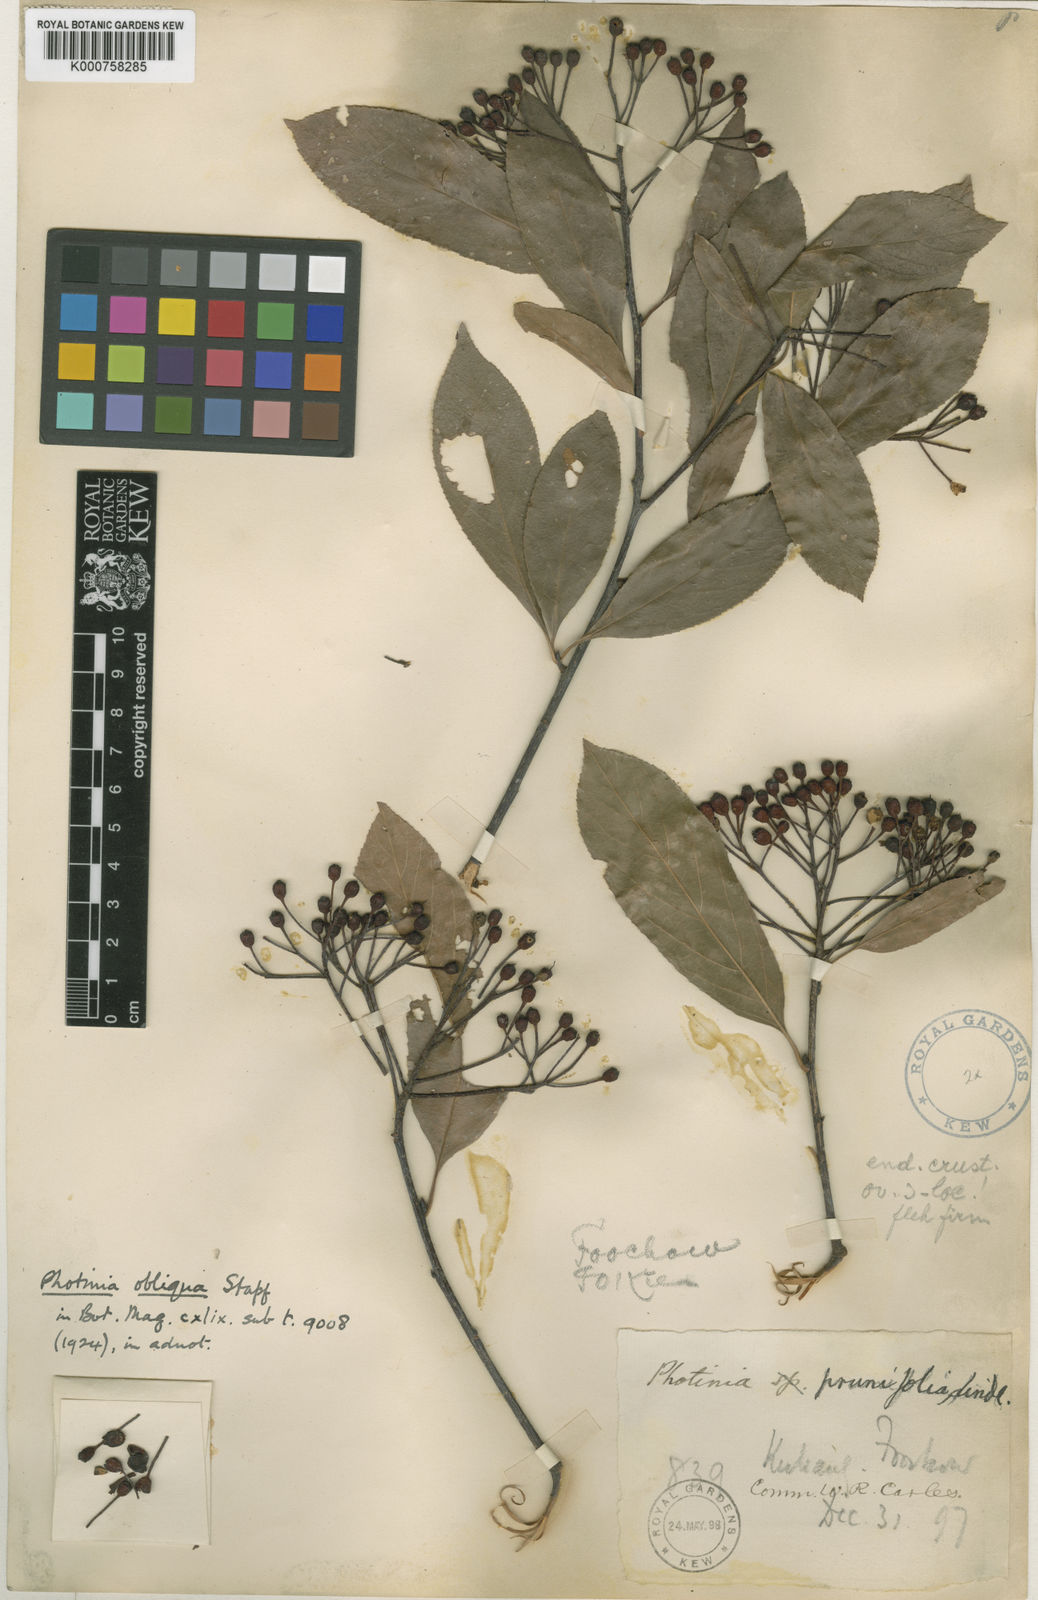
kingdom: Plantae
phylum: Tracheophyta
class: Magnoliopsida
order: Rosales
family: Rosaceae
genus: Pourthiaea
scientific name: Pourthiaea obliqua
